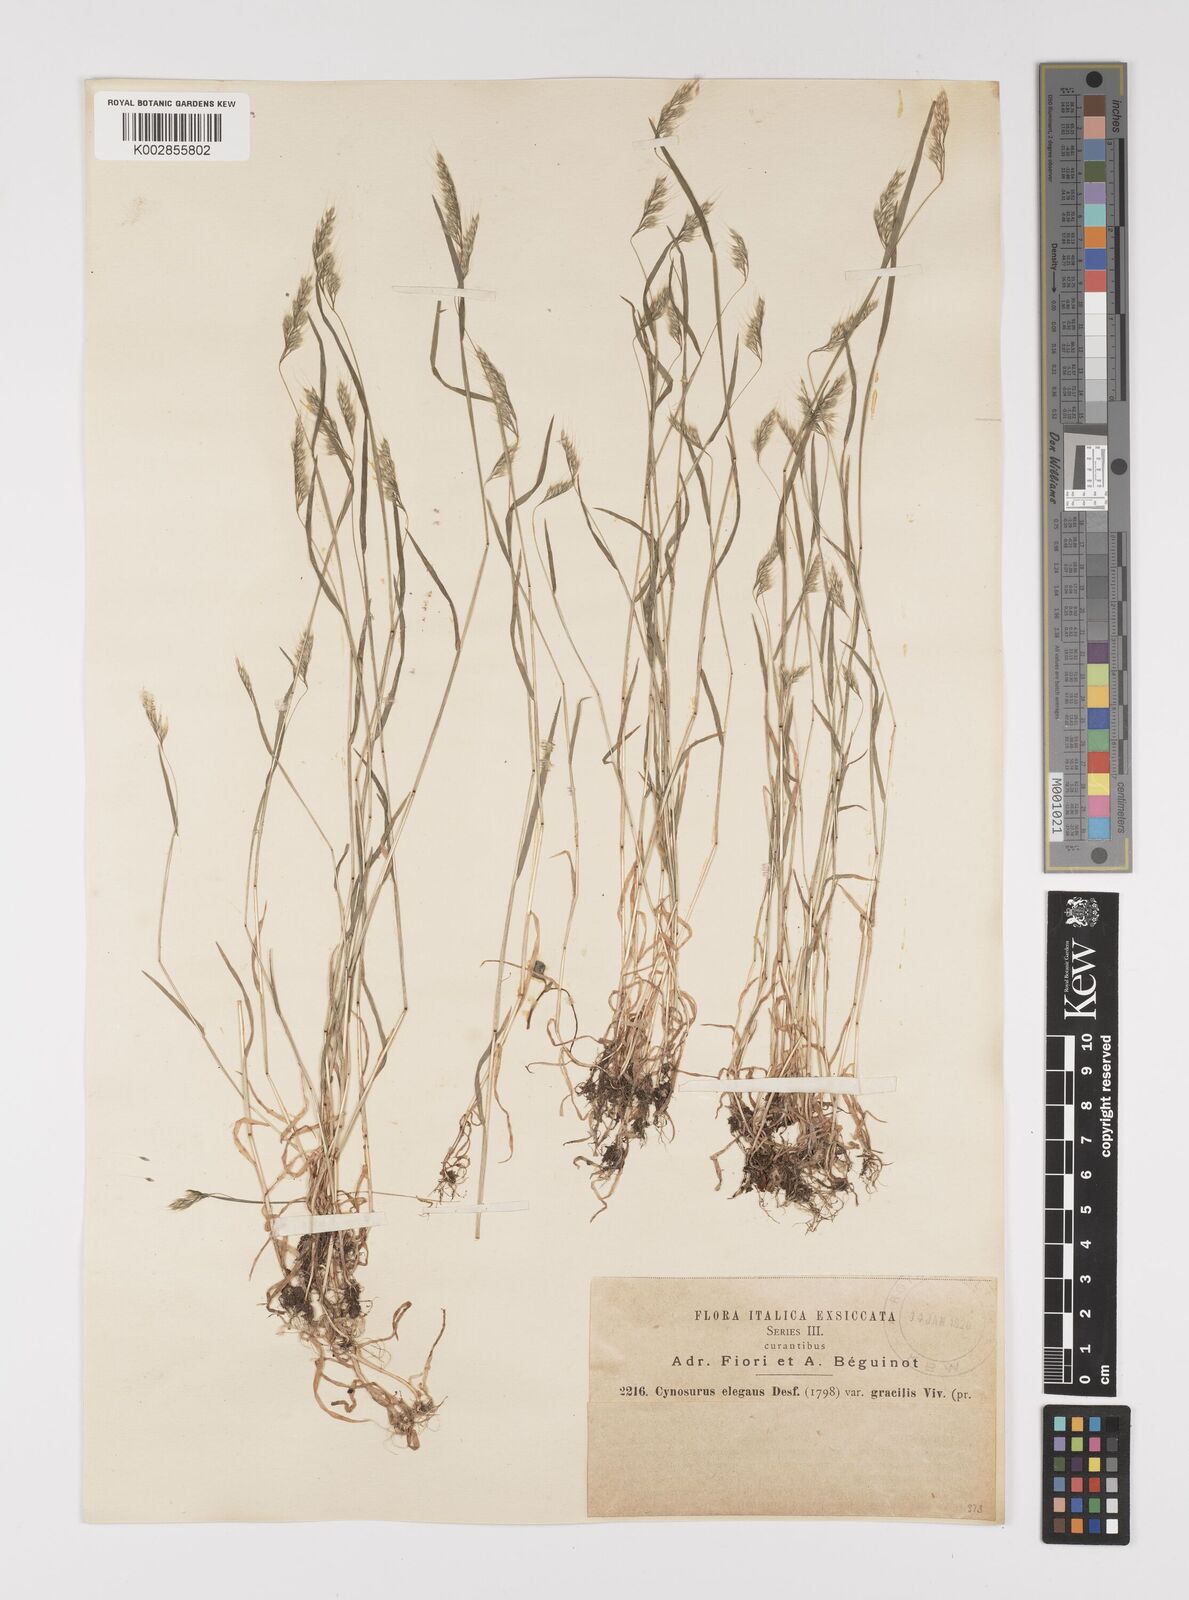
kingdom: Plantae
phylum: Tracheophyta
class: Liliopsida
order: Poales
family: Poaceae
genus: Cynosurus
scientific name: Cynosurus elegans
